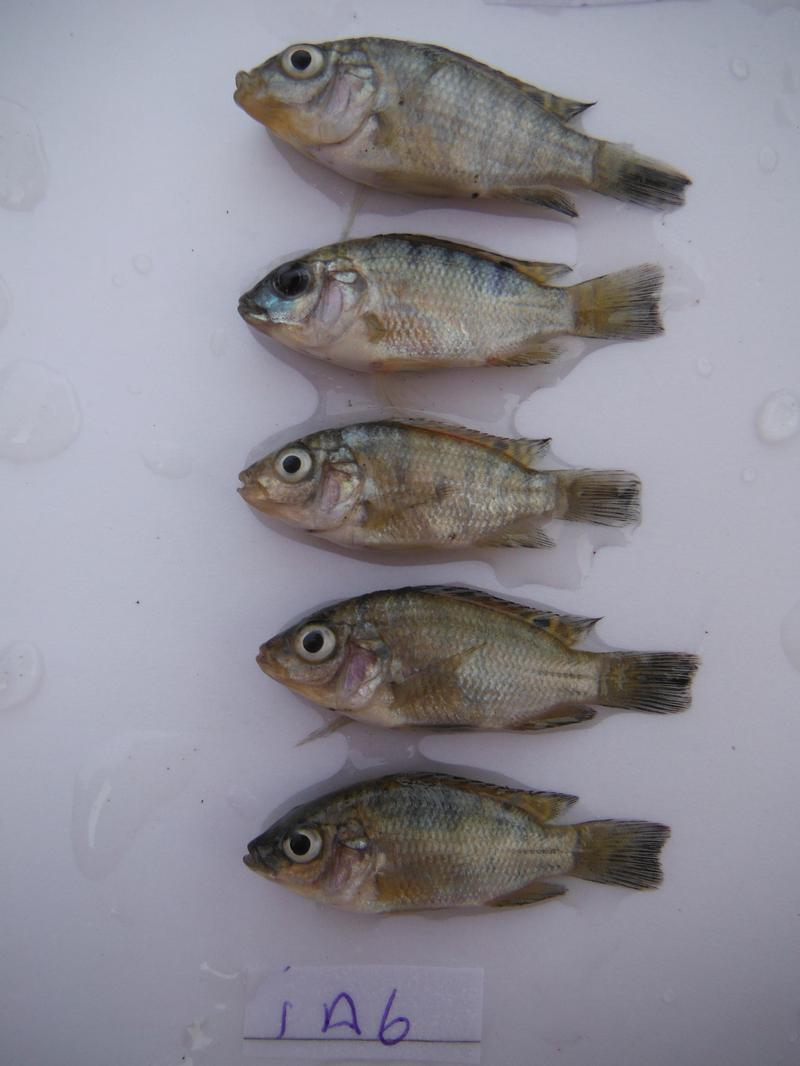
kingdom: Animalia
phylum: Chordata
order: Perciformes
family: Cichlidae
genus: Oreochromis
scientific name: Oreochromis urolepis
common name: Wami tilapia
